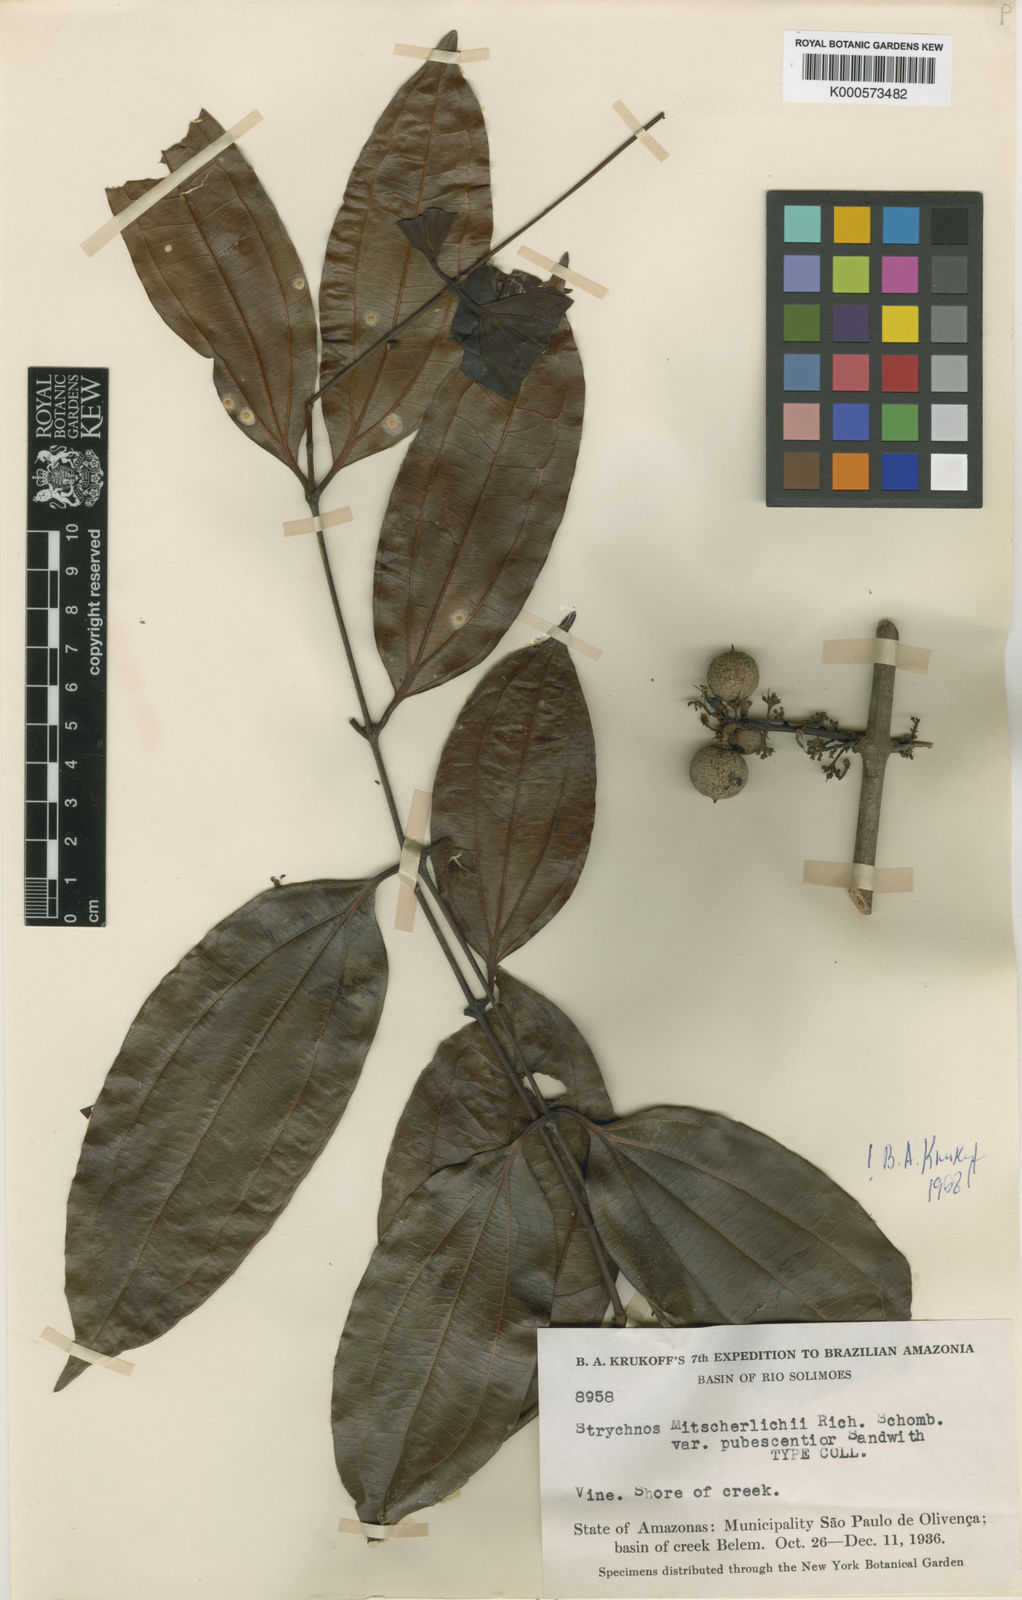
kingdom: Plantae
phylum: Tracheophyta
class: Magnoliopsida
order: Gentianales
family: Loganiaceae
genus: Strychnos
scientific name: Strychnos mitscherlichii
